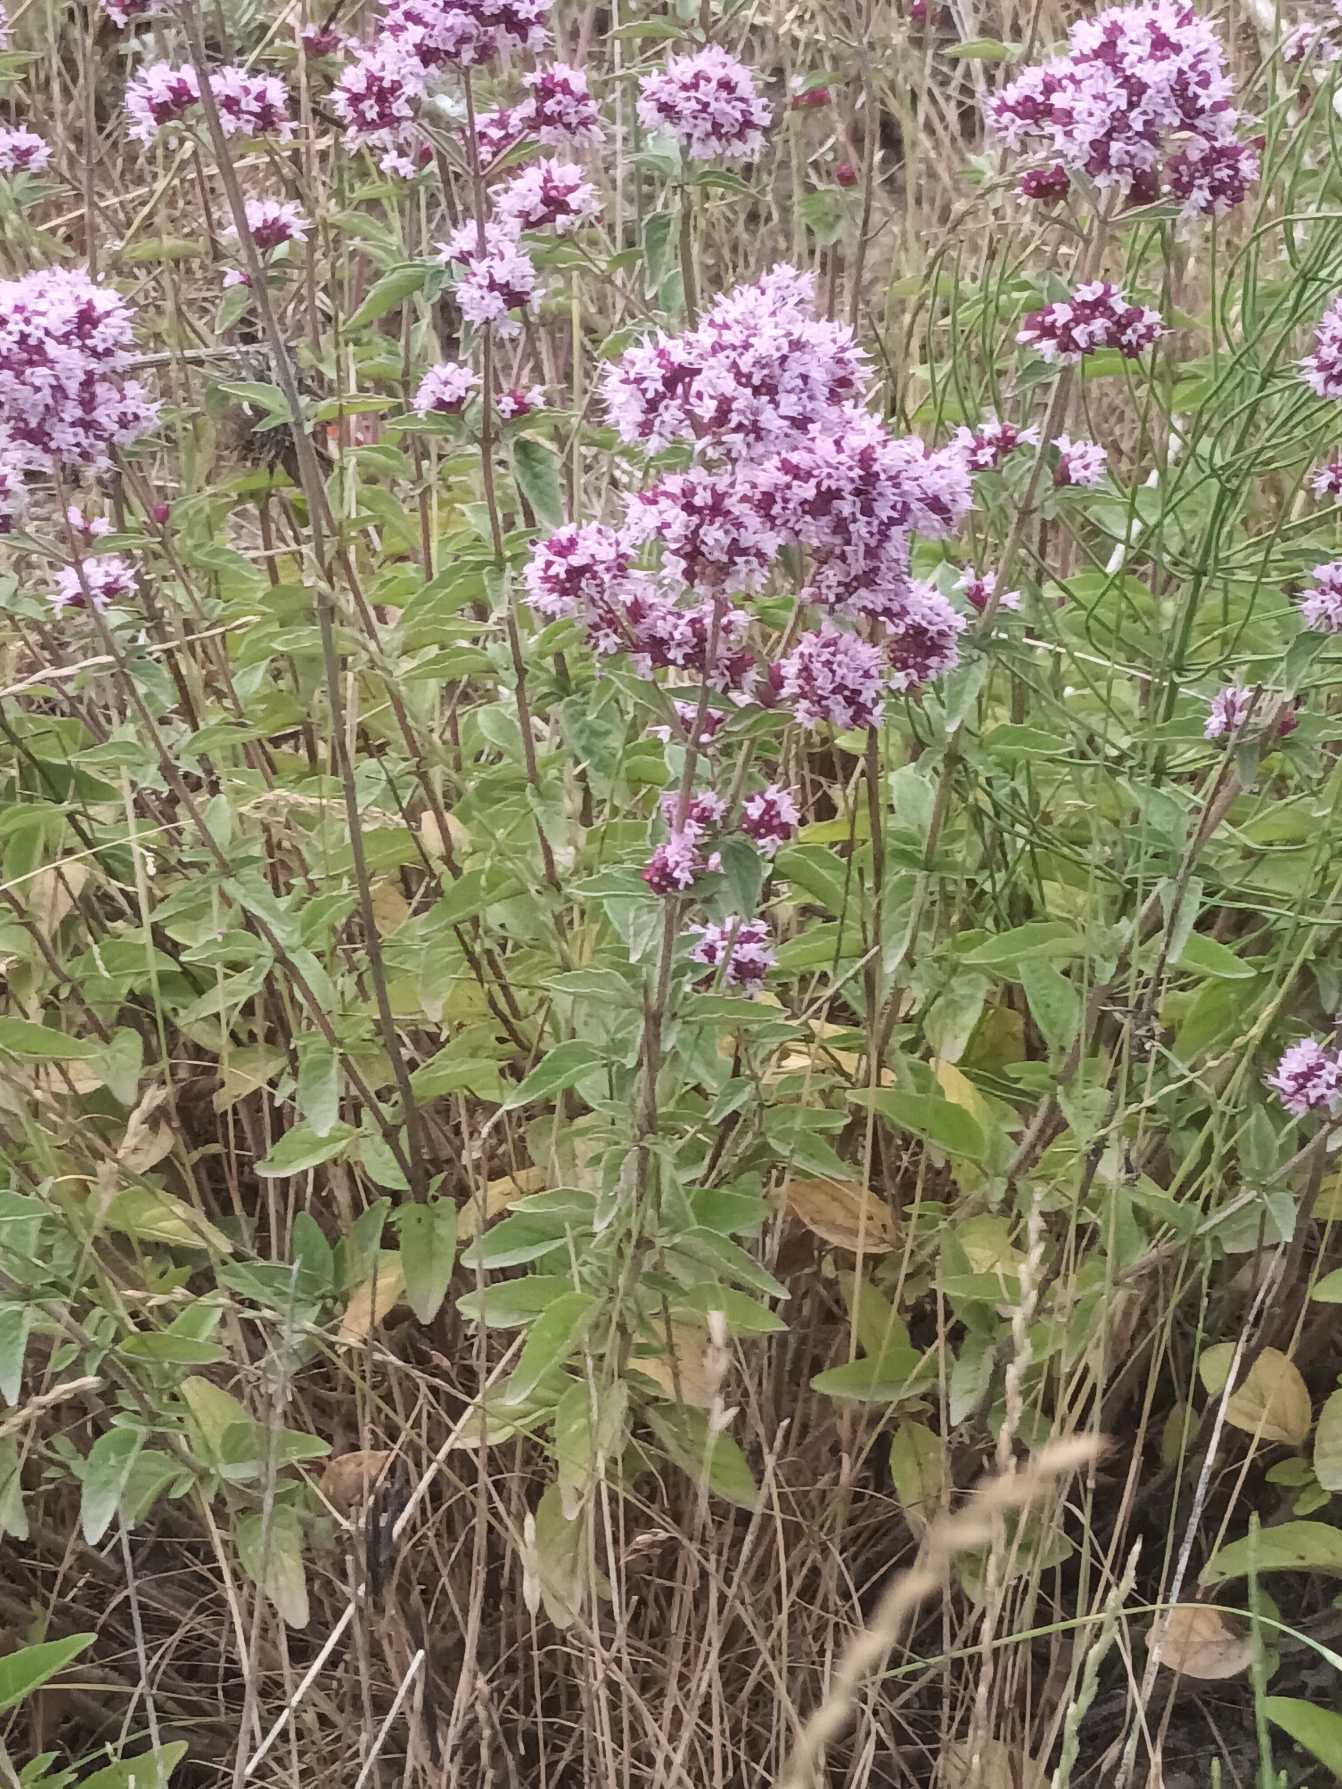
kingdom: Plantae
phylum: Tracheophyta
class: Magnoliopsida
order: Lamiales
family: Lamiaceae
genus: Origanum
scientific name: Origanum vulgare
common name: Merian
